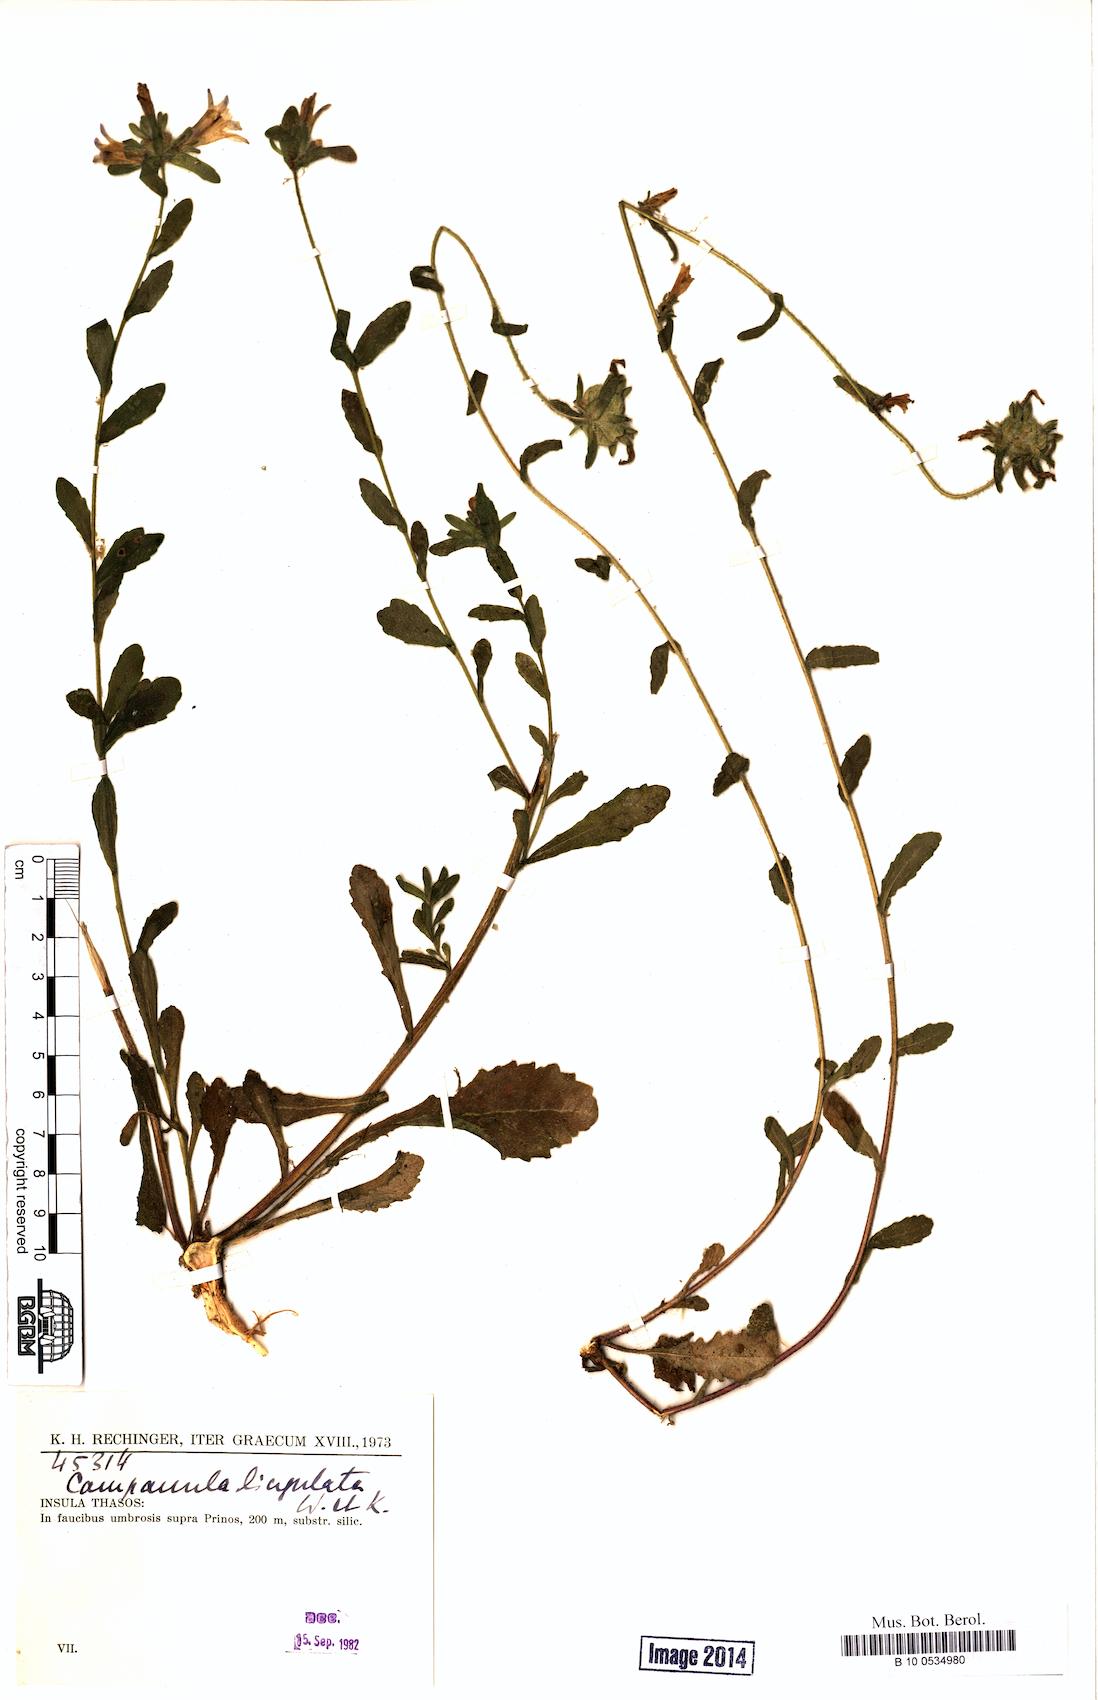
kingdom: Plantae
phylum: Tracheophyta
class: Magnoliopsida
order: Asterales
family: Campanulaceae
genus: Campanula
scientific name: Campanula lingulata
